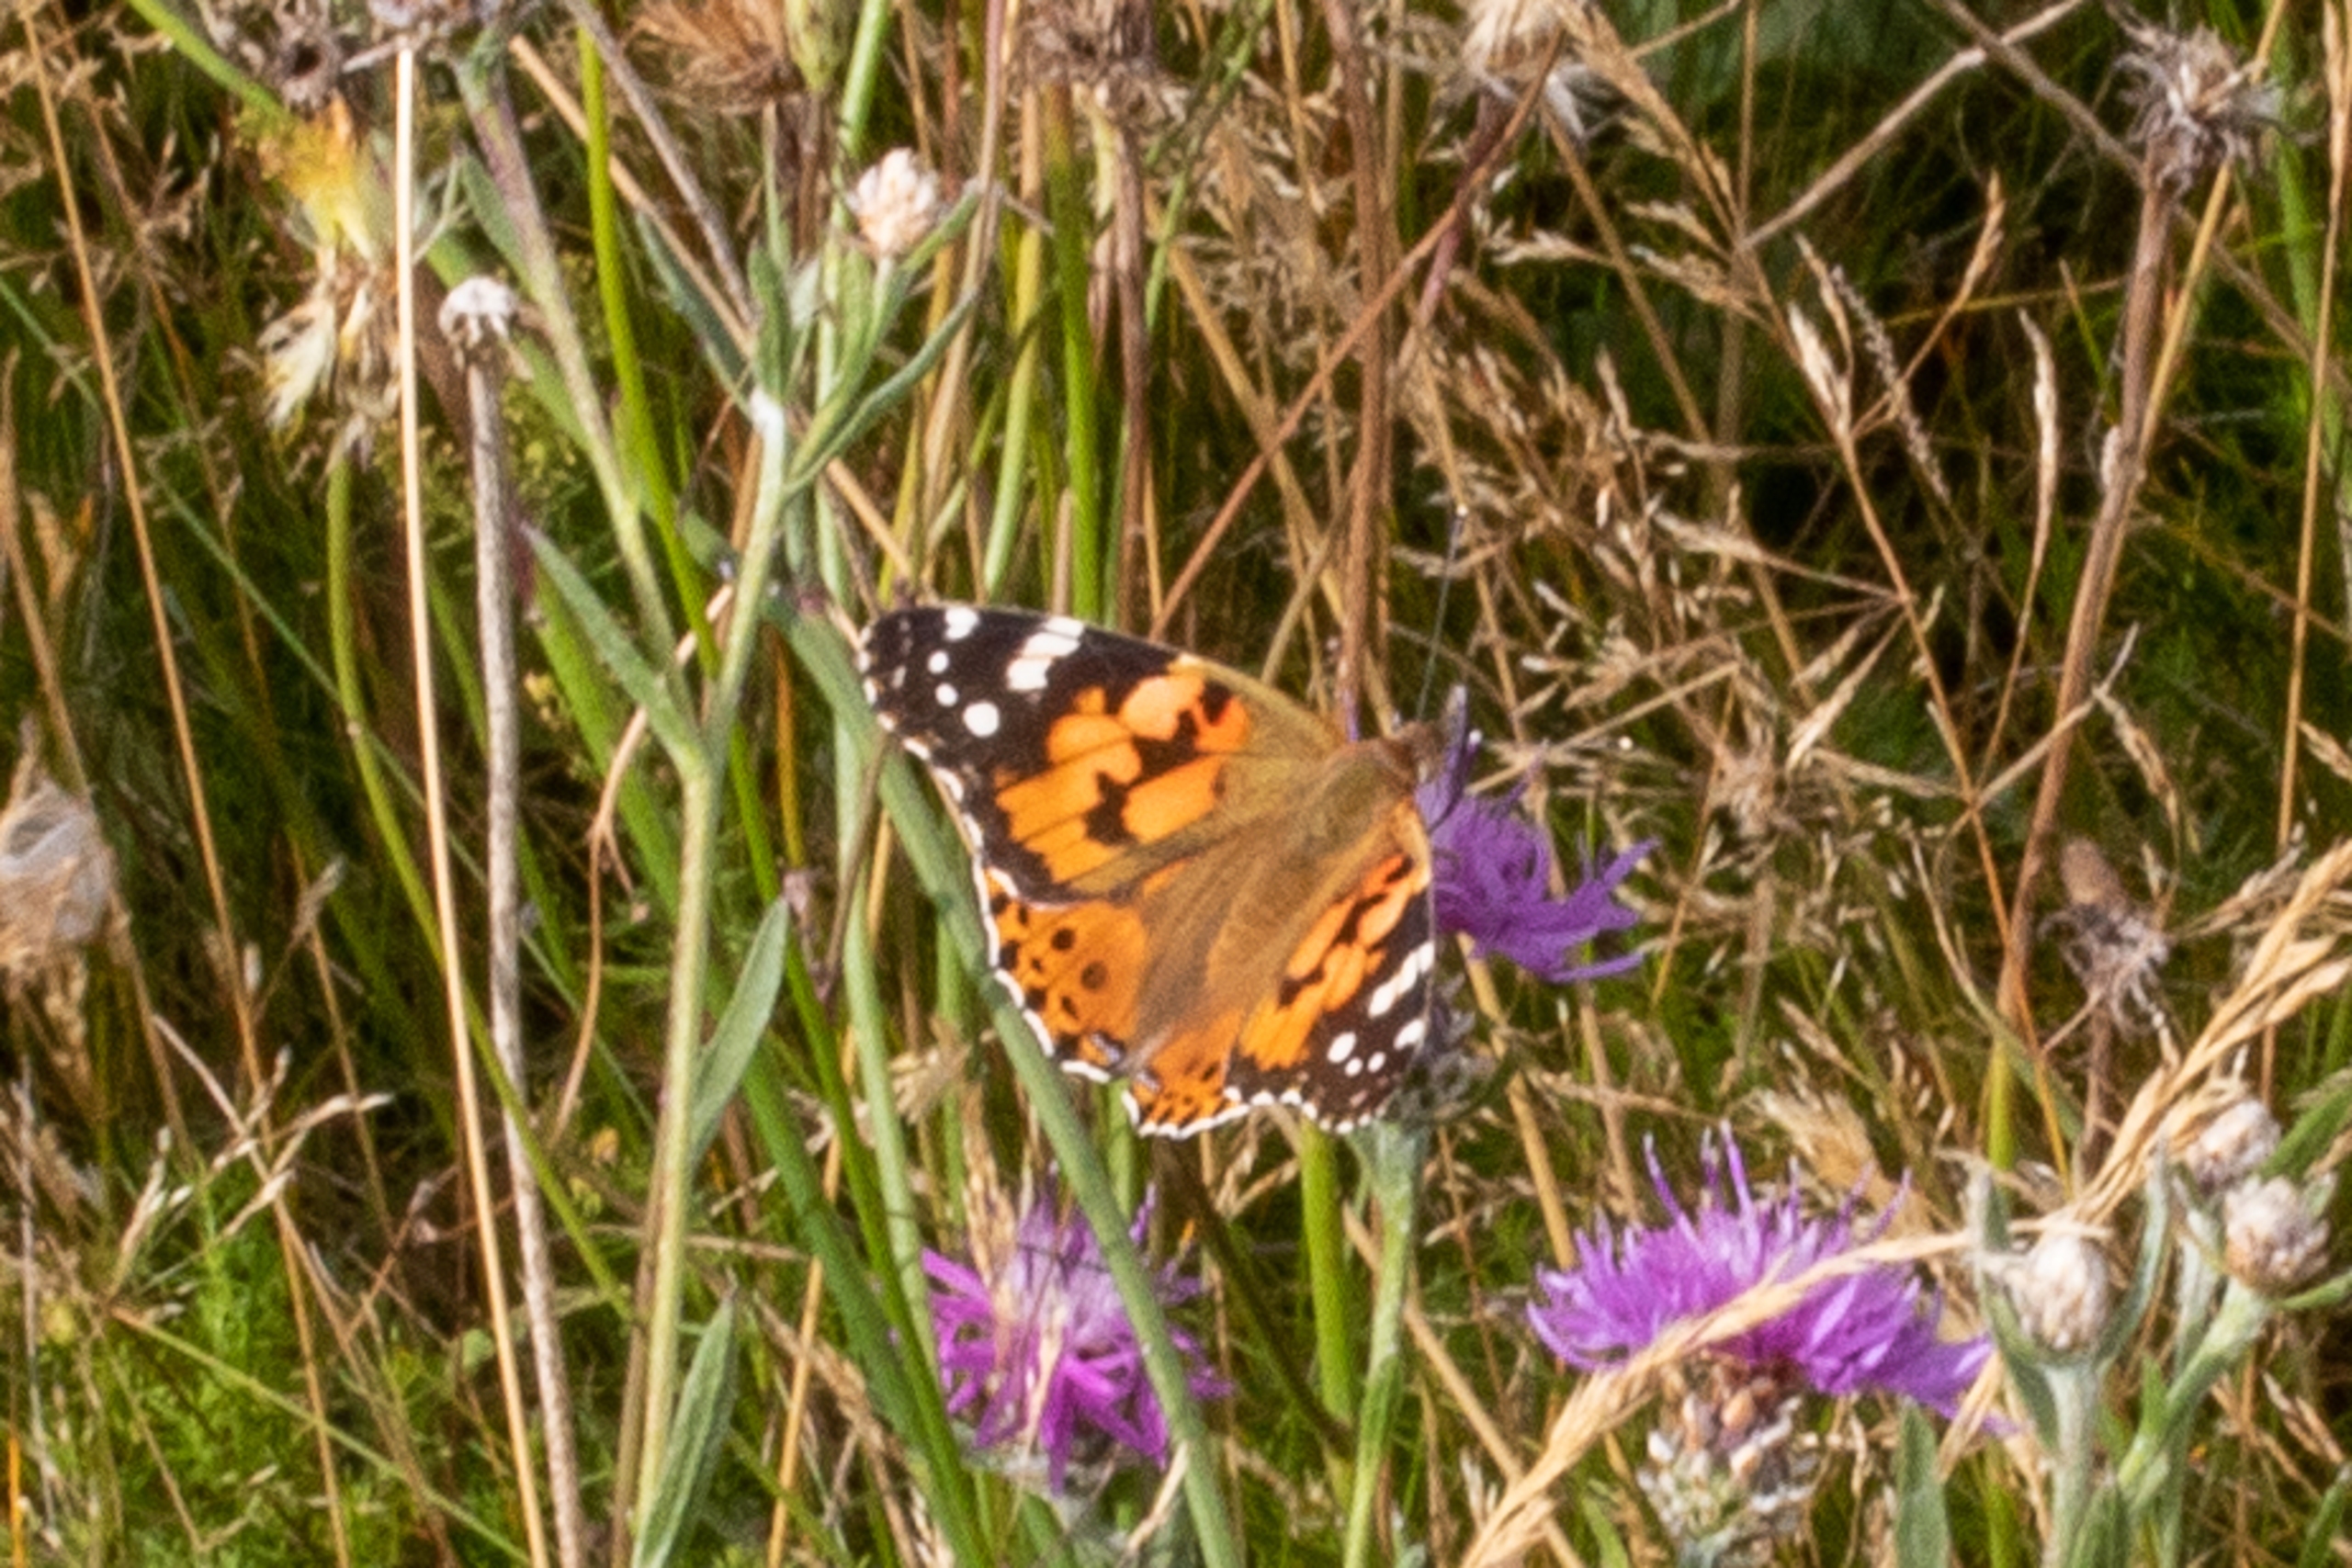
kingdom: Animalia
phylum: Arthropoda
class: Insecta
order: Lepidoptera
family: Nymphalidae
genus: Vanessa
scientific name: Vanessa cardui
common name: Tidselsommerfugl
